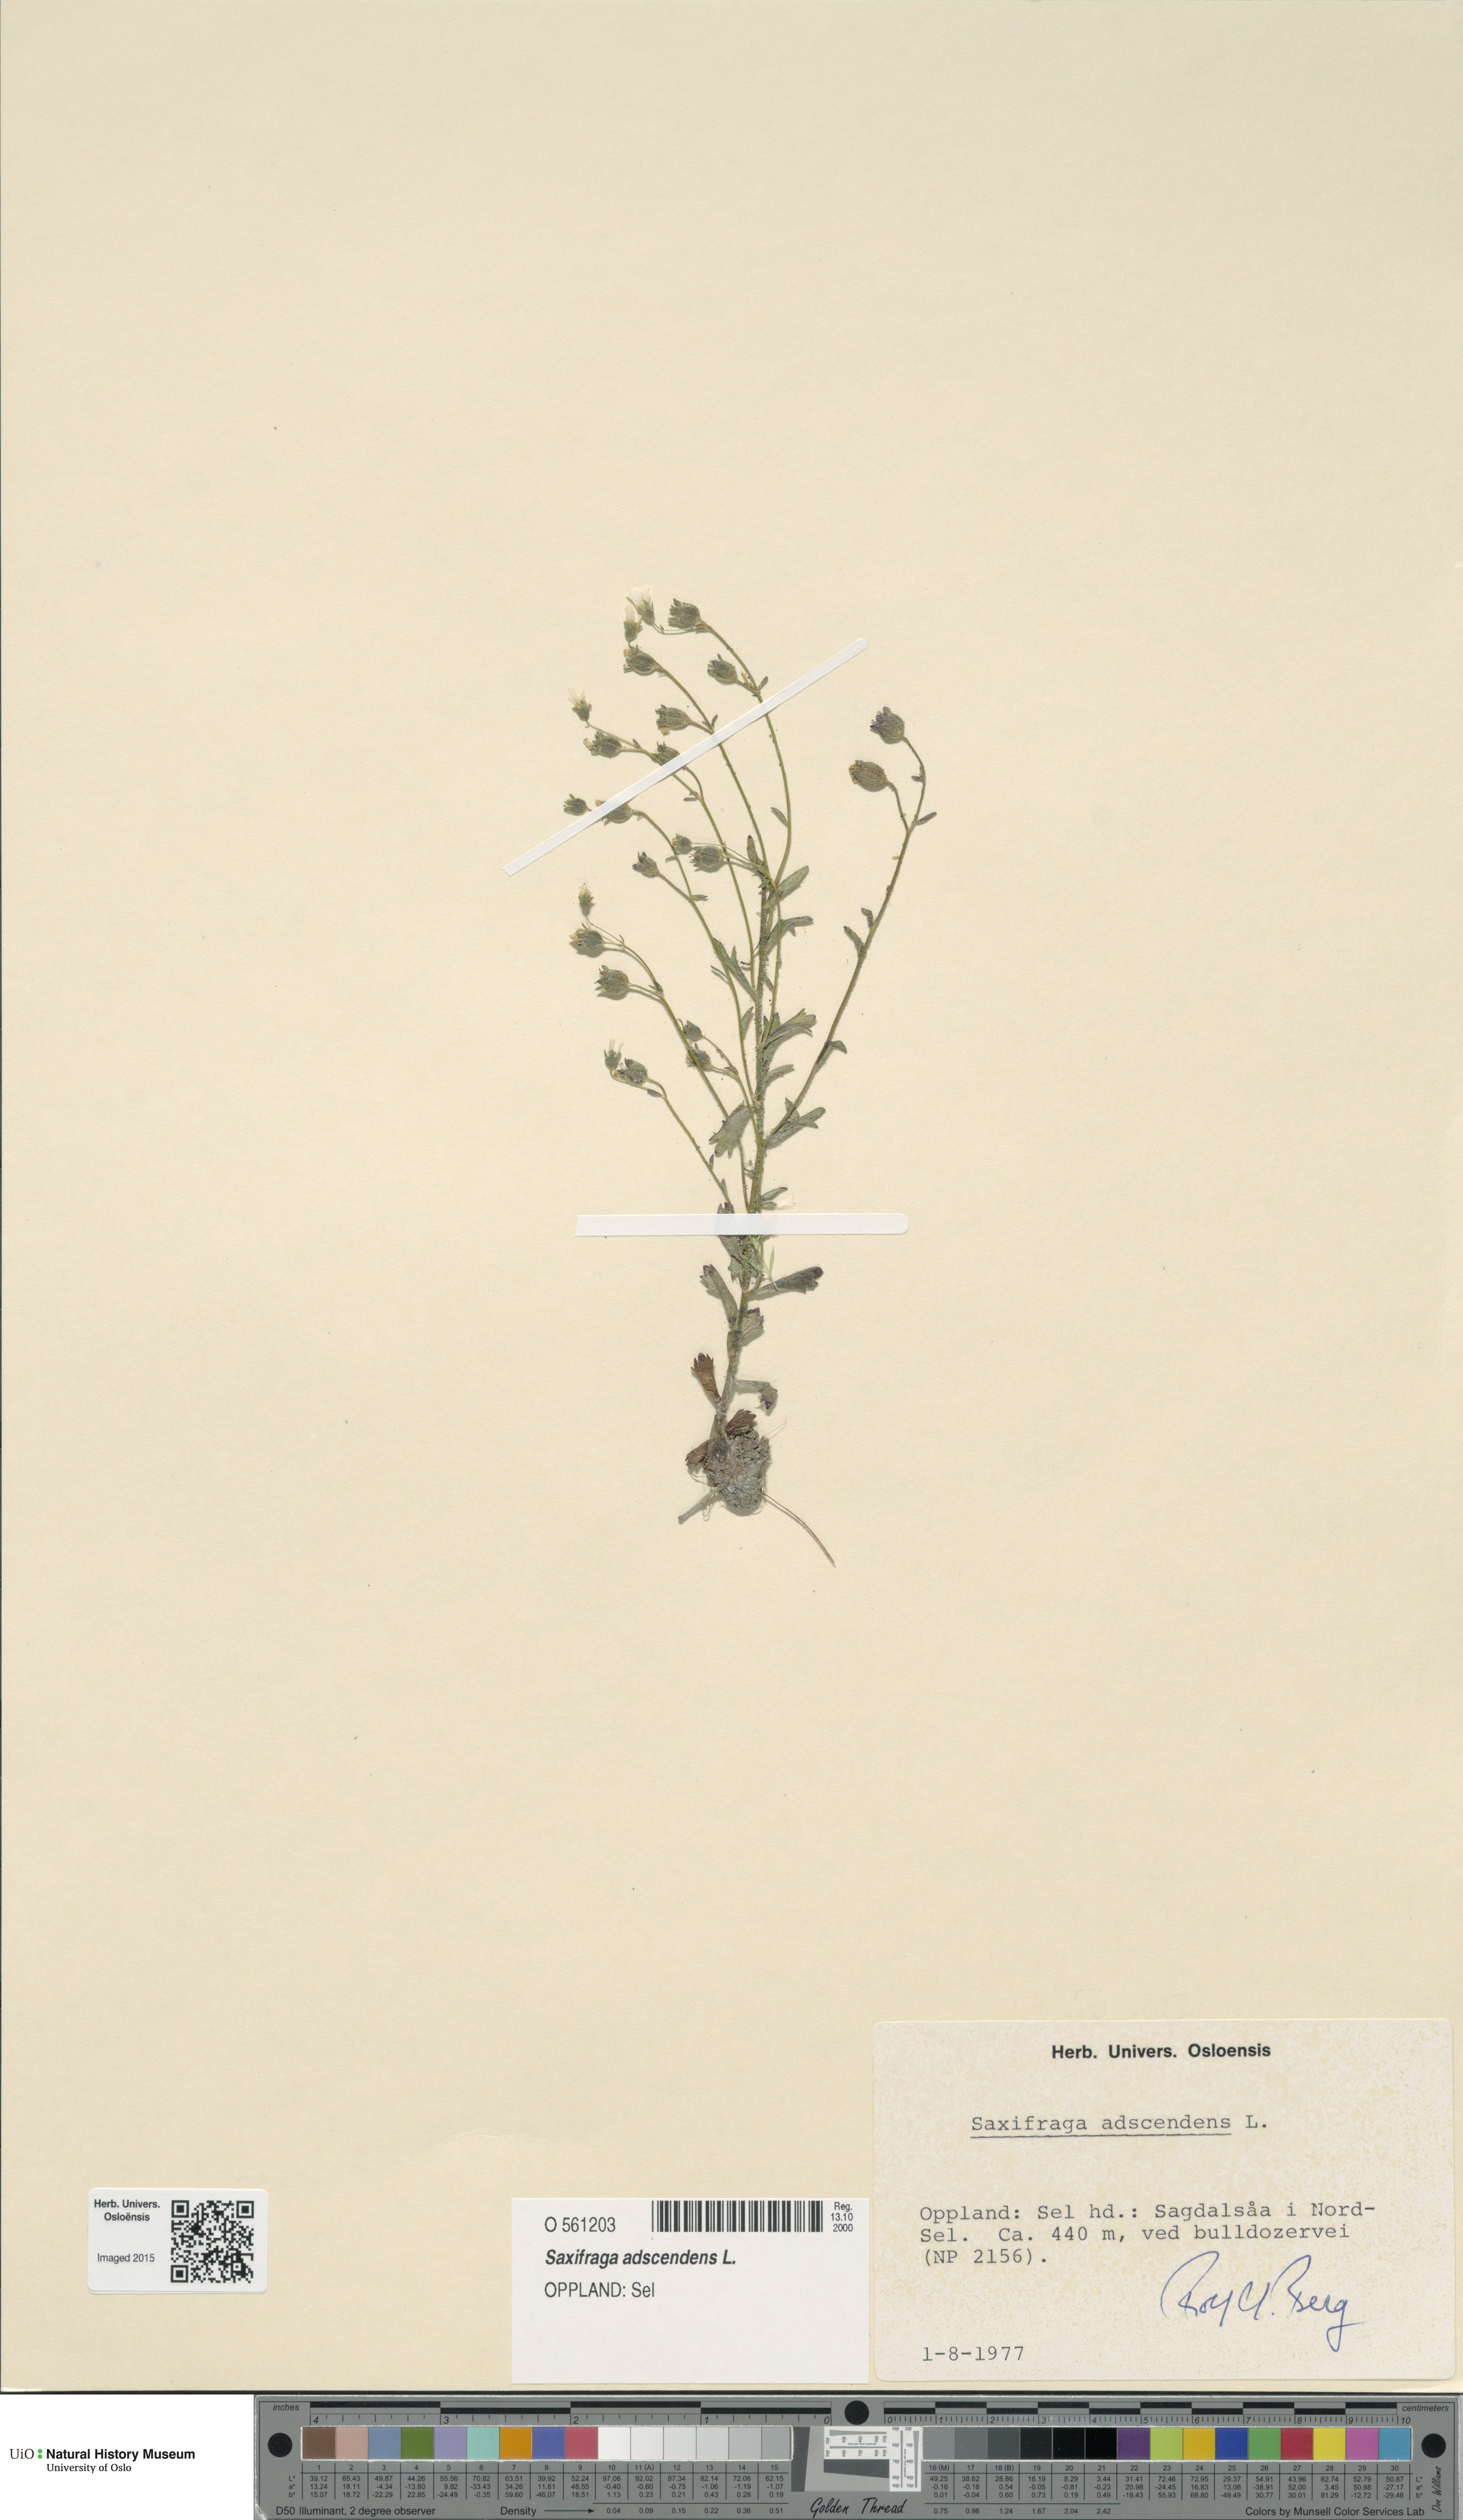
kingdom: Plantae
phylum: Tracheophyta
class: Magnoliopsida
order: Saxifragales
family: Saxifragaceae
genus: Saxifraga
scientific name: Saxifraga adscendens
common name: Ascending saxifrage
